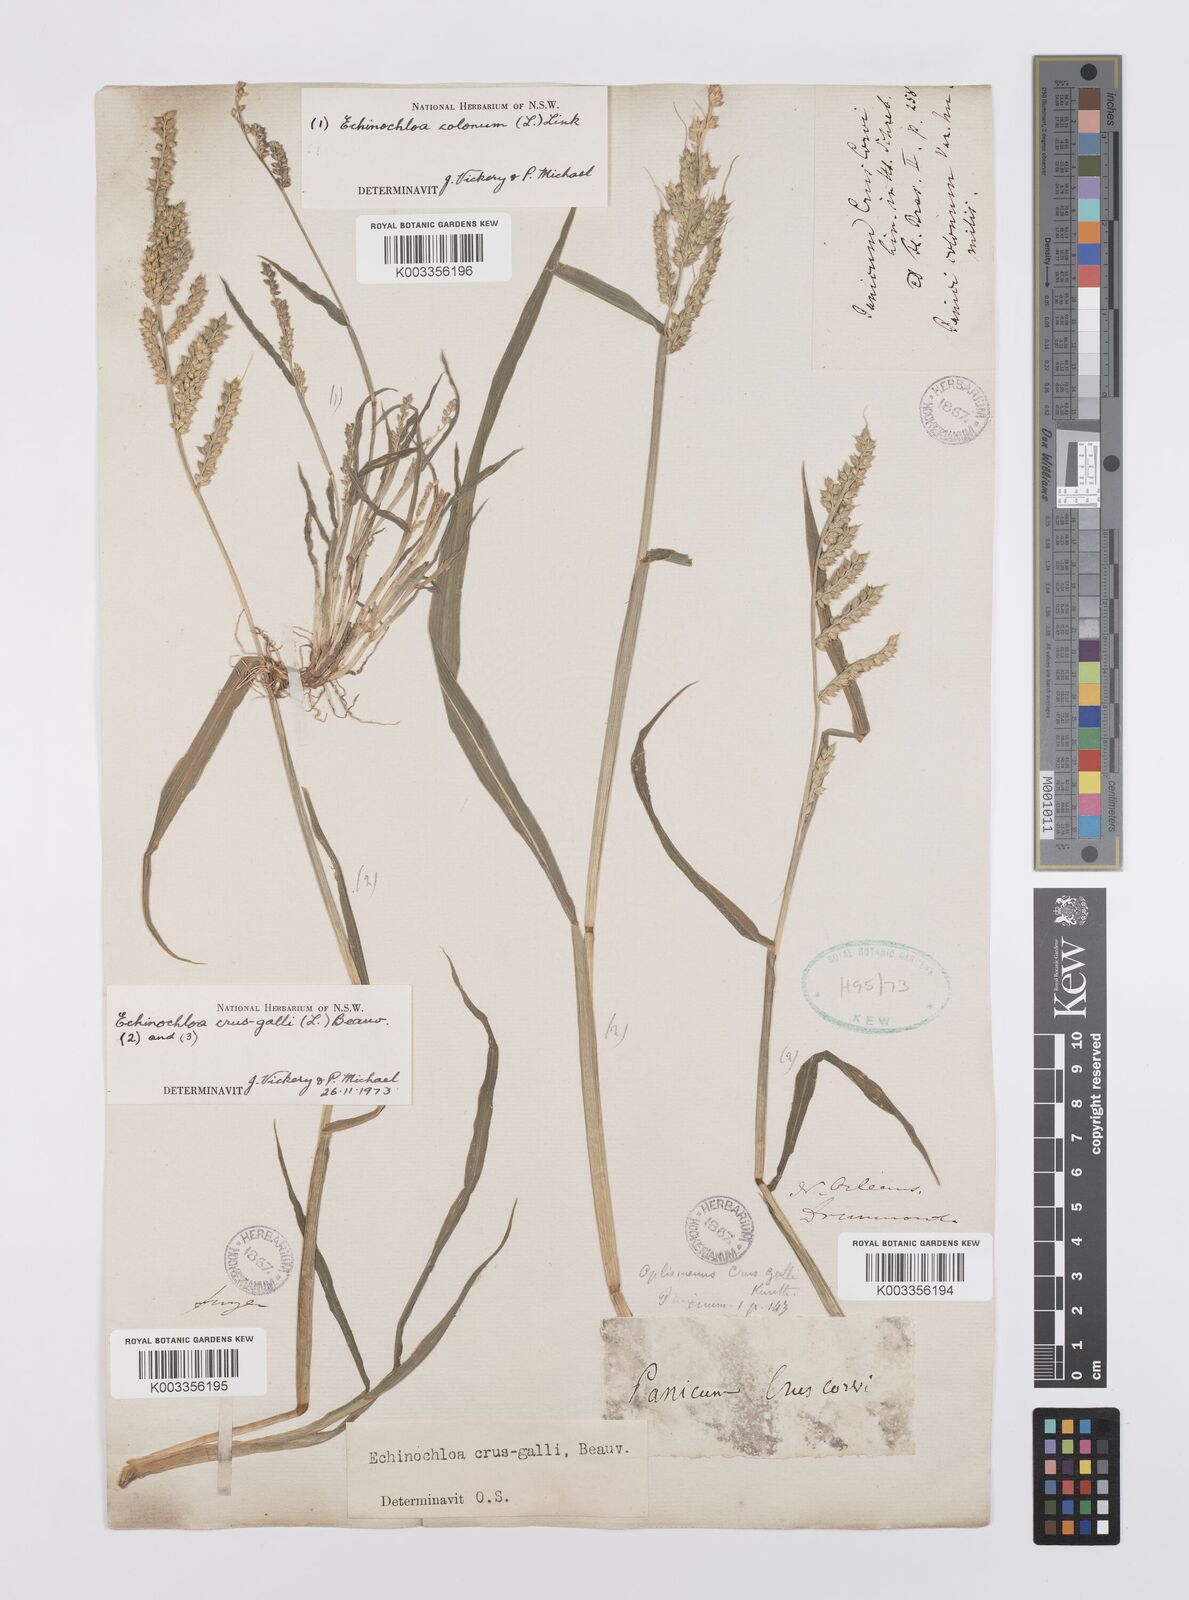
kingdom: Plantae
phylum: Tracheophyta
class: Liliopsida
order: Poales
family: Poaceae
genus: Echinochloa
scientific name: Echinochloa crus-galli
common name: Cockspur
